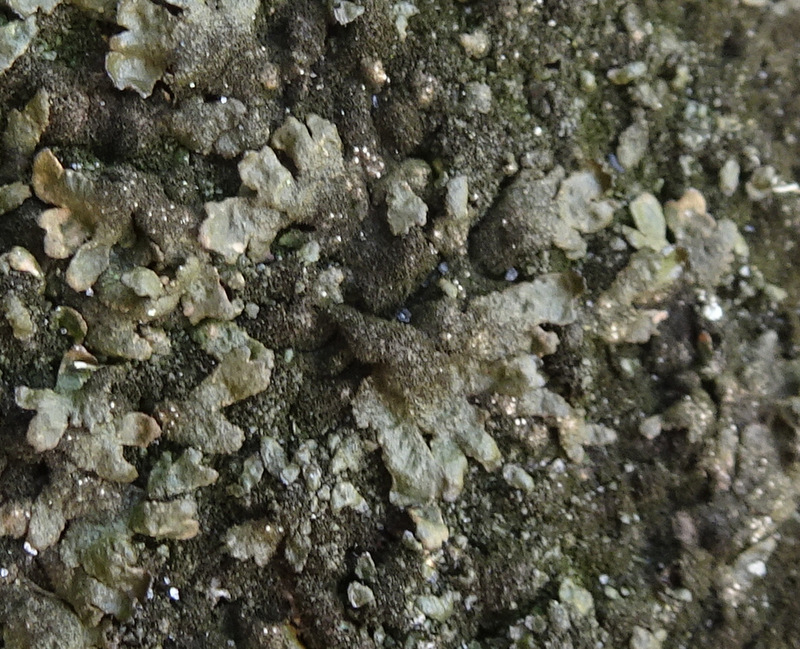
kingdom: Fungi
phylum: Ascomycota
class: Lecanoromycetes
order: Lecanorales
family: Parmeliaceae
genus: Melanelixia
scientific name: Melanelixia fuliginosa
